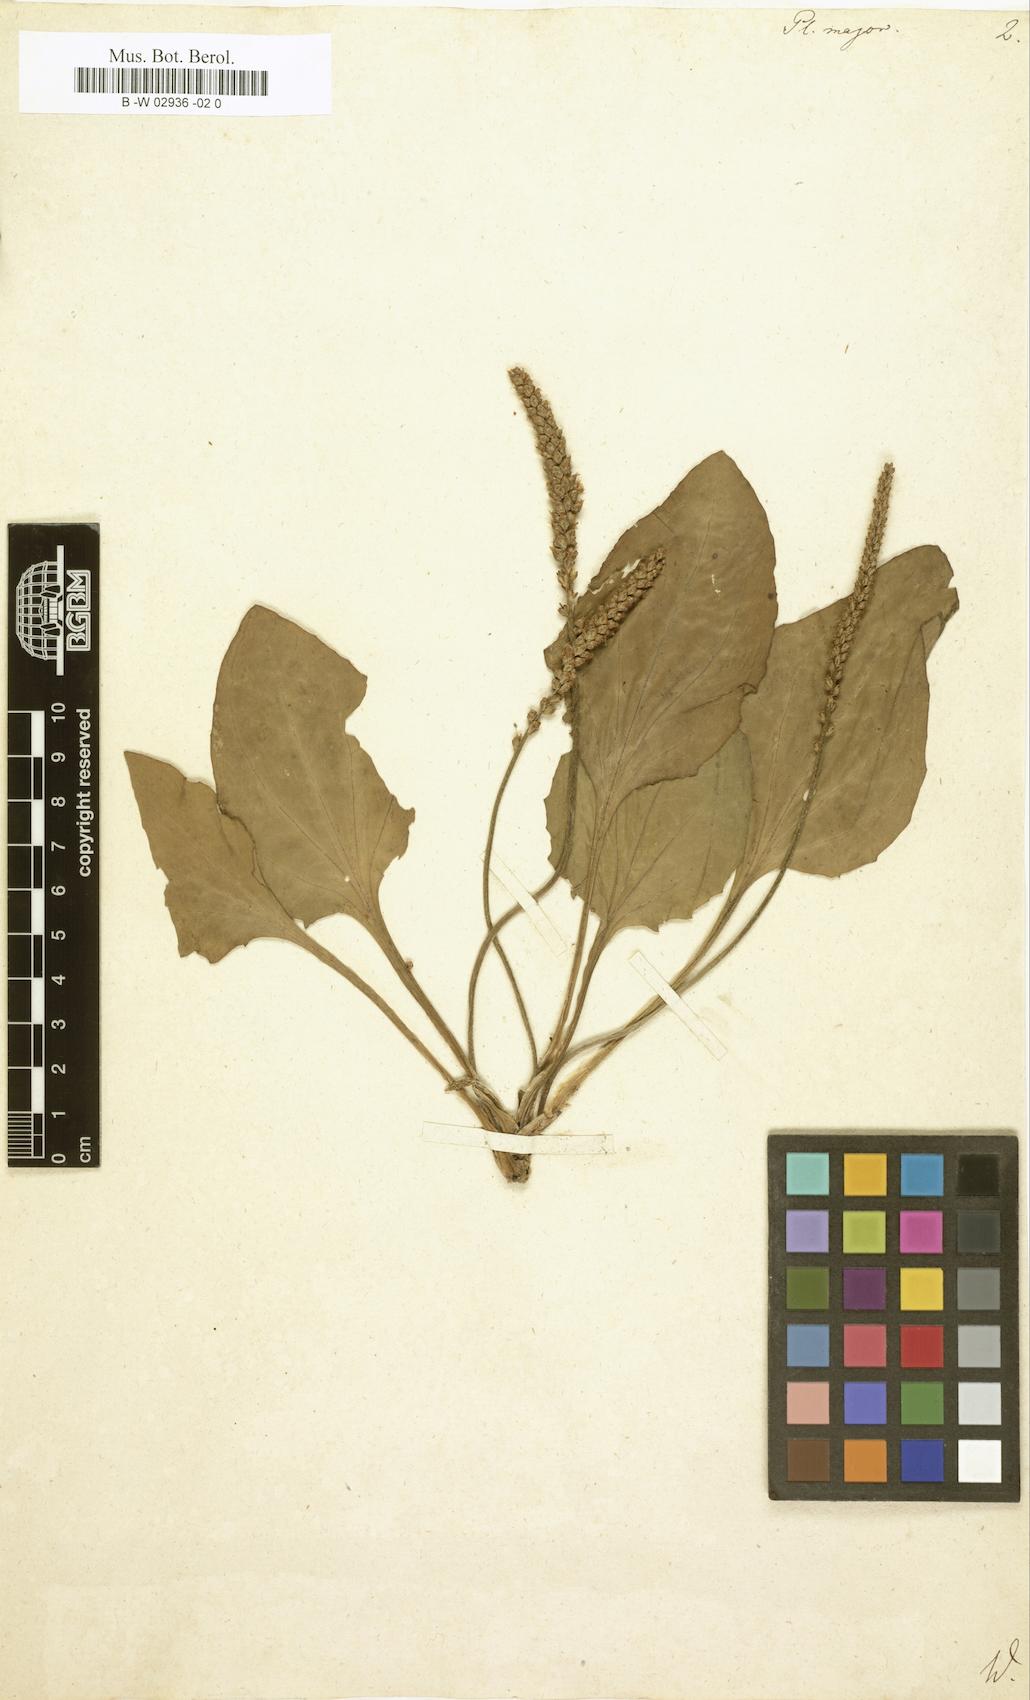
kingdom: Plantae
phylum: Tracheophyta
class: Magnoliopsida
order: Lamiales
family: Plantaginaceae
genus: Plantago
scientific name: Plantago major
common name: Common plantain
